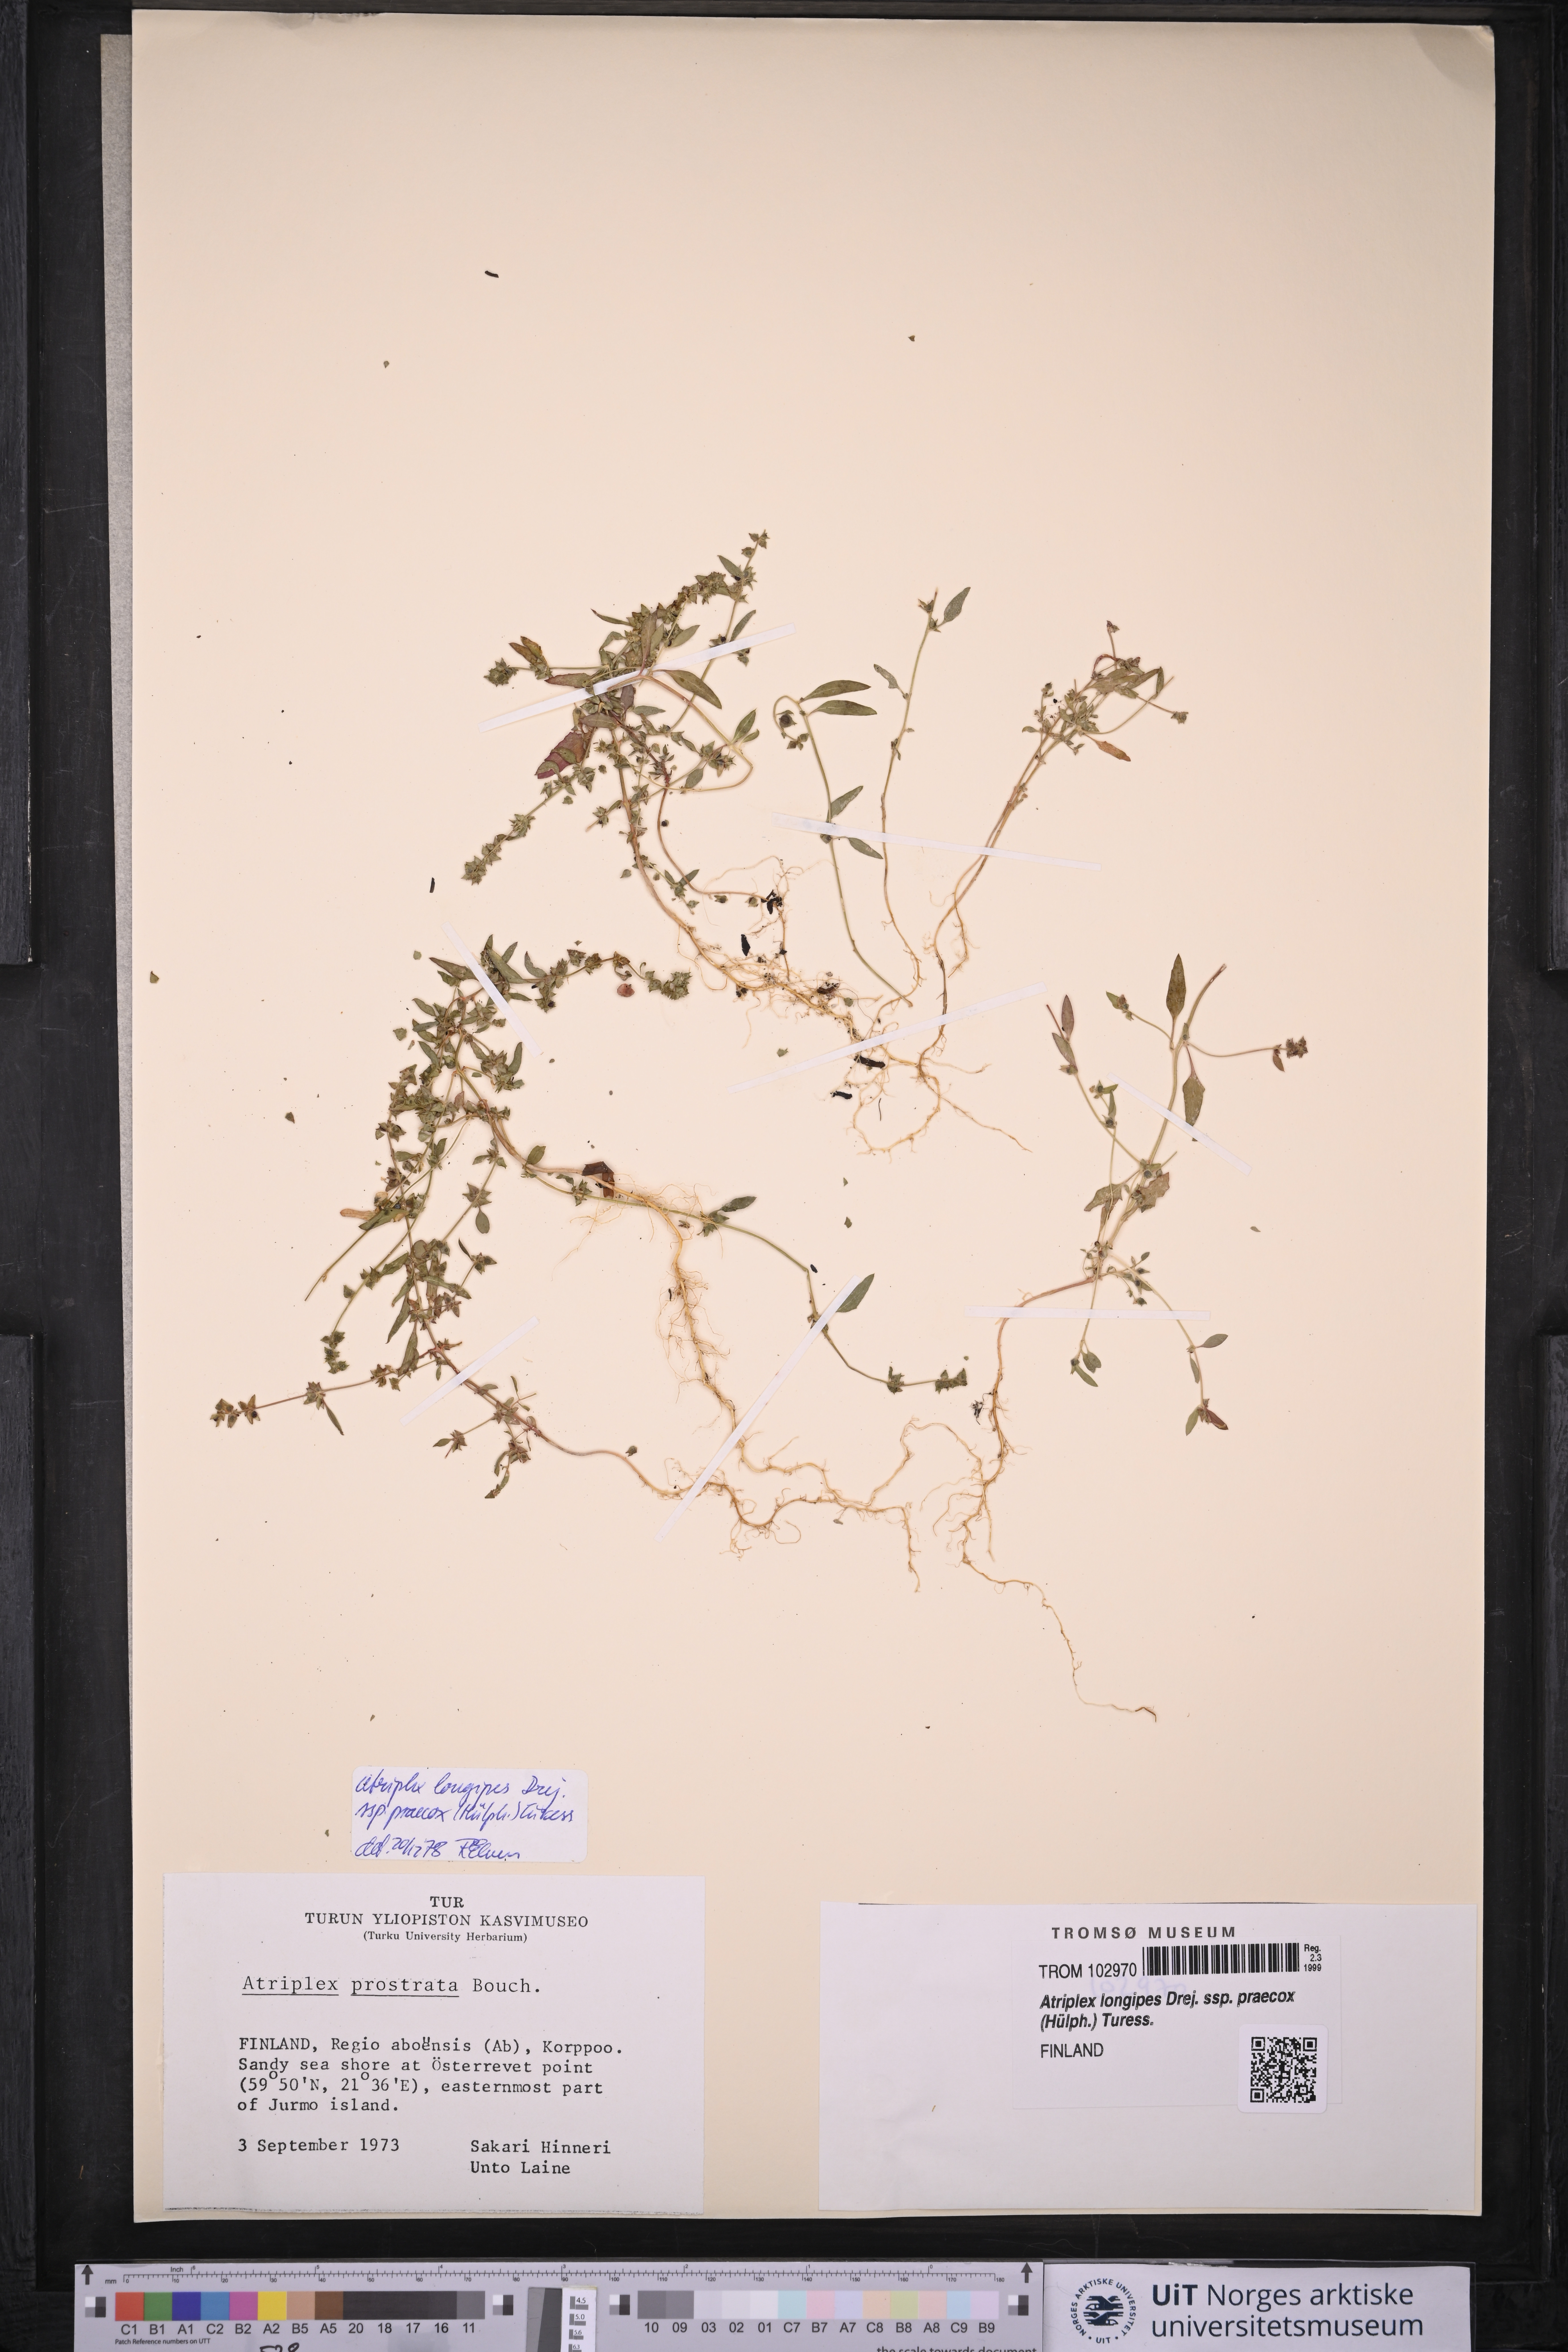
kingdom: Plantae
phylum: Tracheophyta
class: Magnoliopsida
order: Caryophyllales
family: Amaranthaceae
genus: Atriplex
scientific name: Atriplex praecox
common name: Early orache
